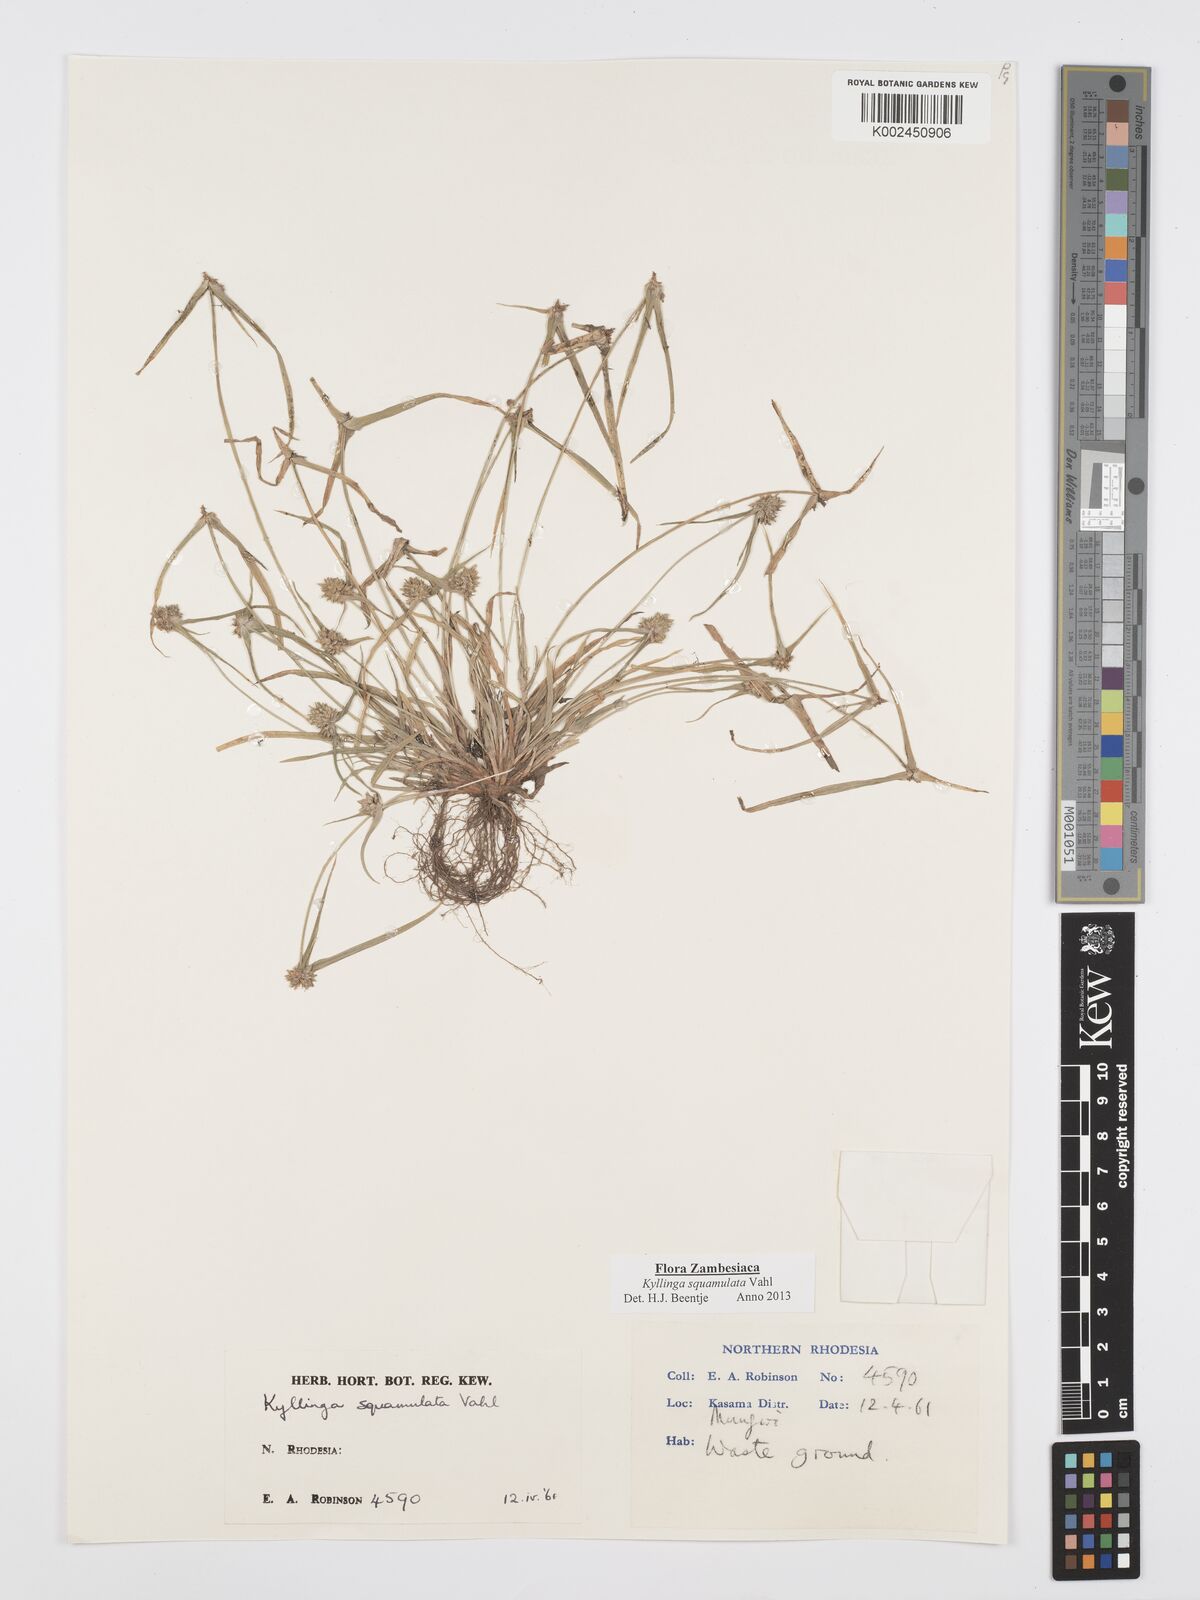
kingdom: Plantae
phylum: Tracheophyta
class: Liliopsida
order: Poales
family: Cyperaceae
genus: Cyperus
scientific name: Cyperus distans
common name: Slender cyperus
